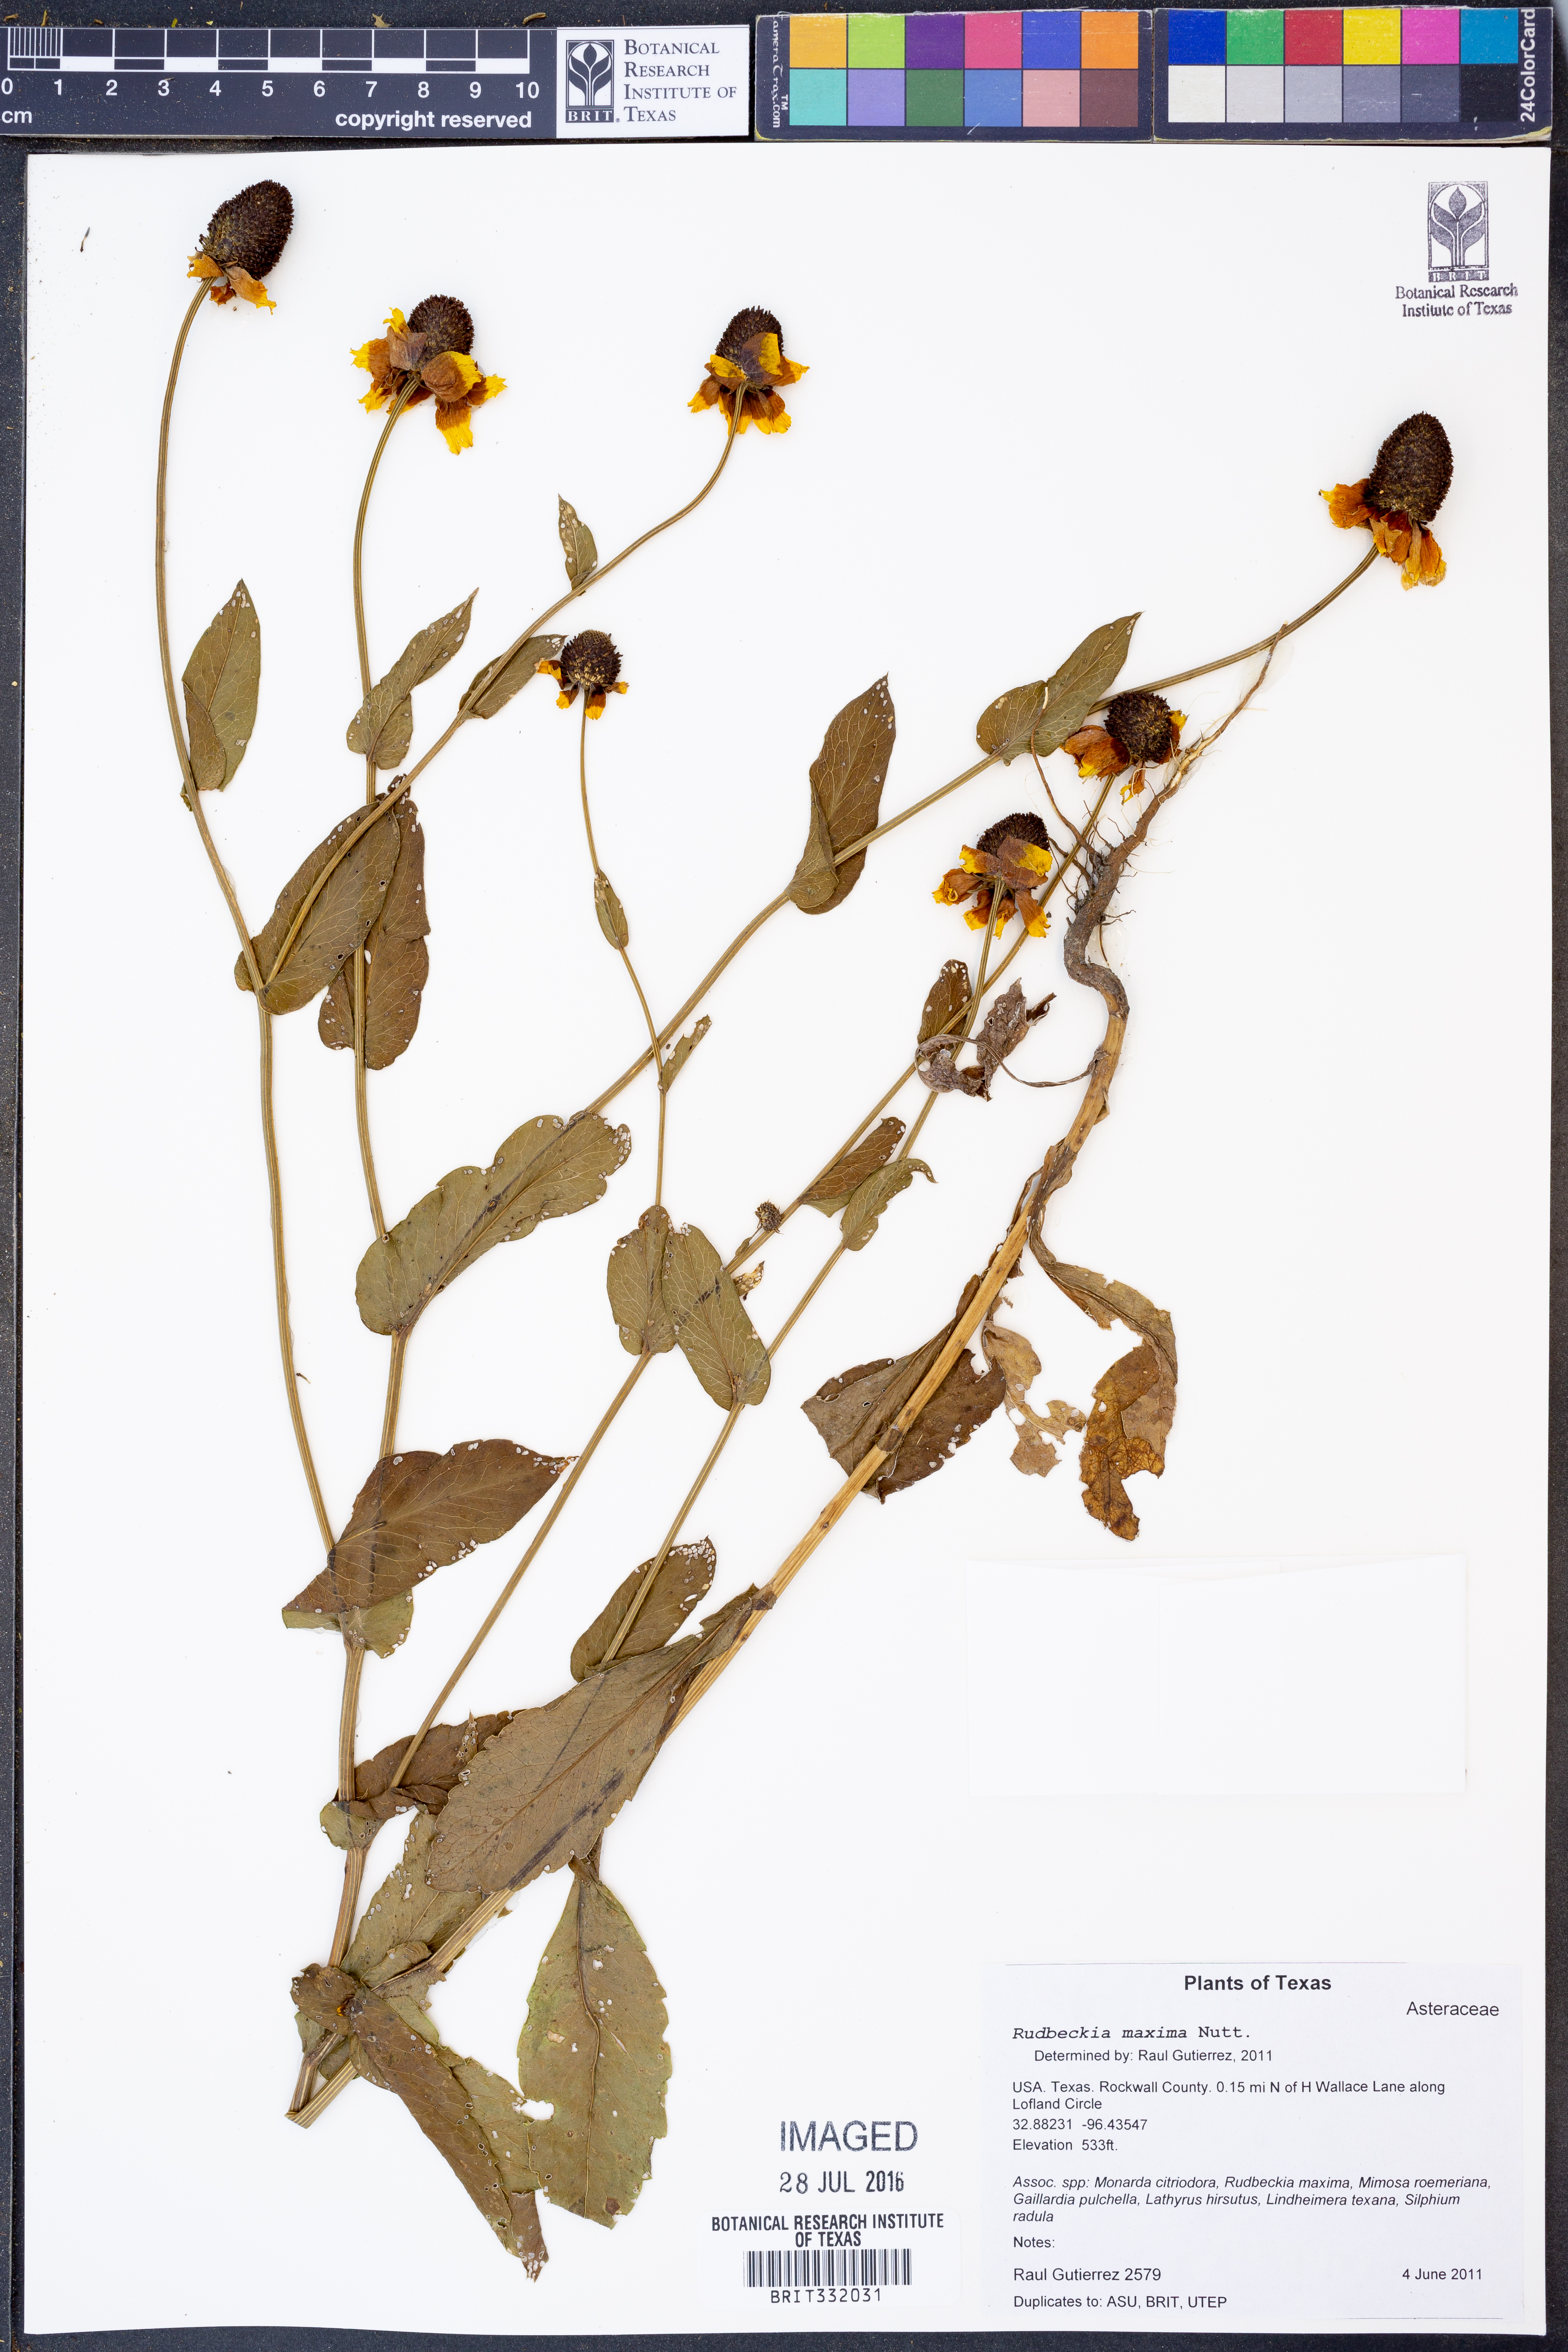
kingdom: Plantae
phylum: Tracheophyta
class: Magnoliopsida
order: Asterales
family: Asteraceae
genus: Rudbeckia
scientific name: Rudbeckia maxima
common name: Cabbage coneflower
